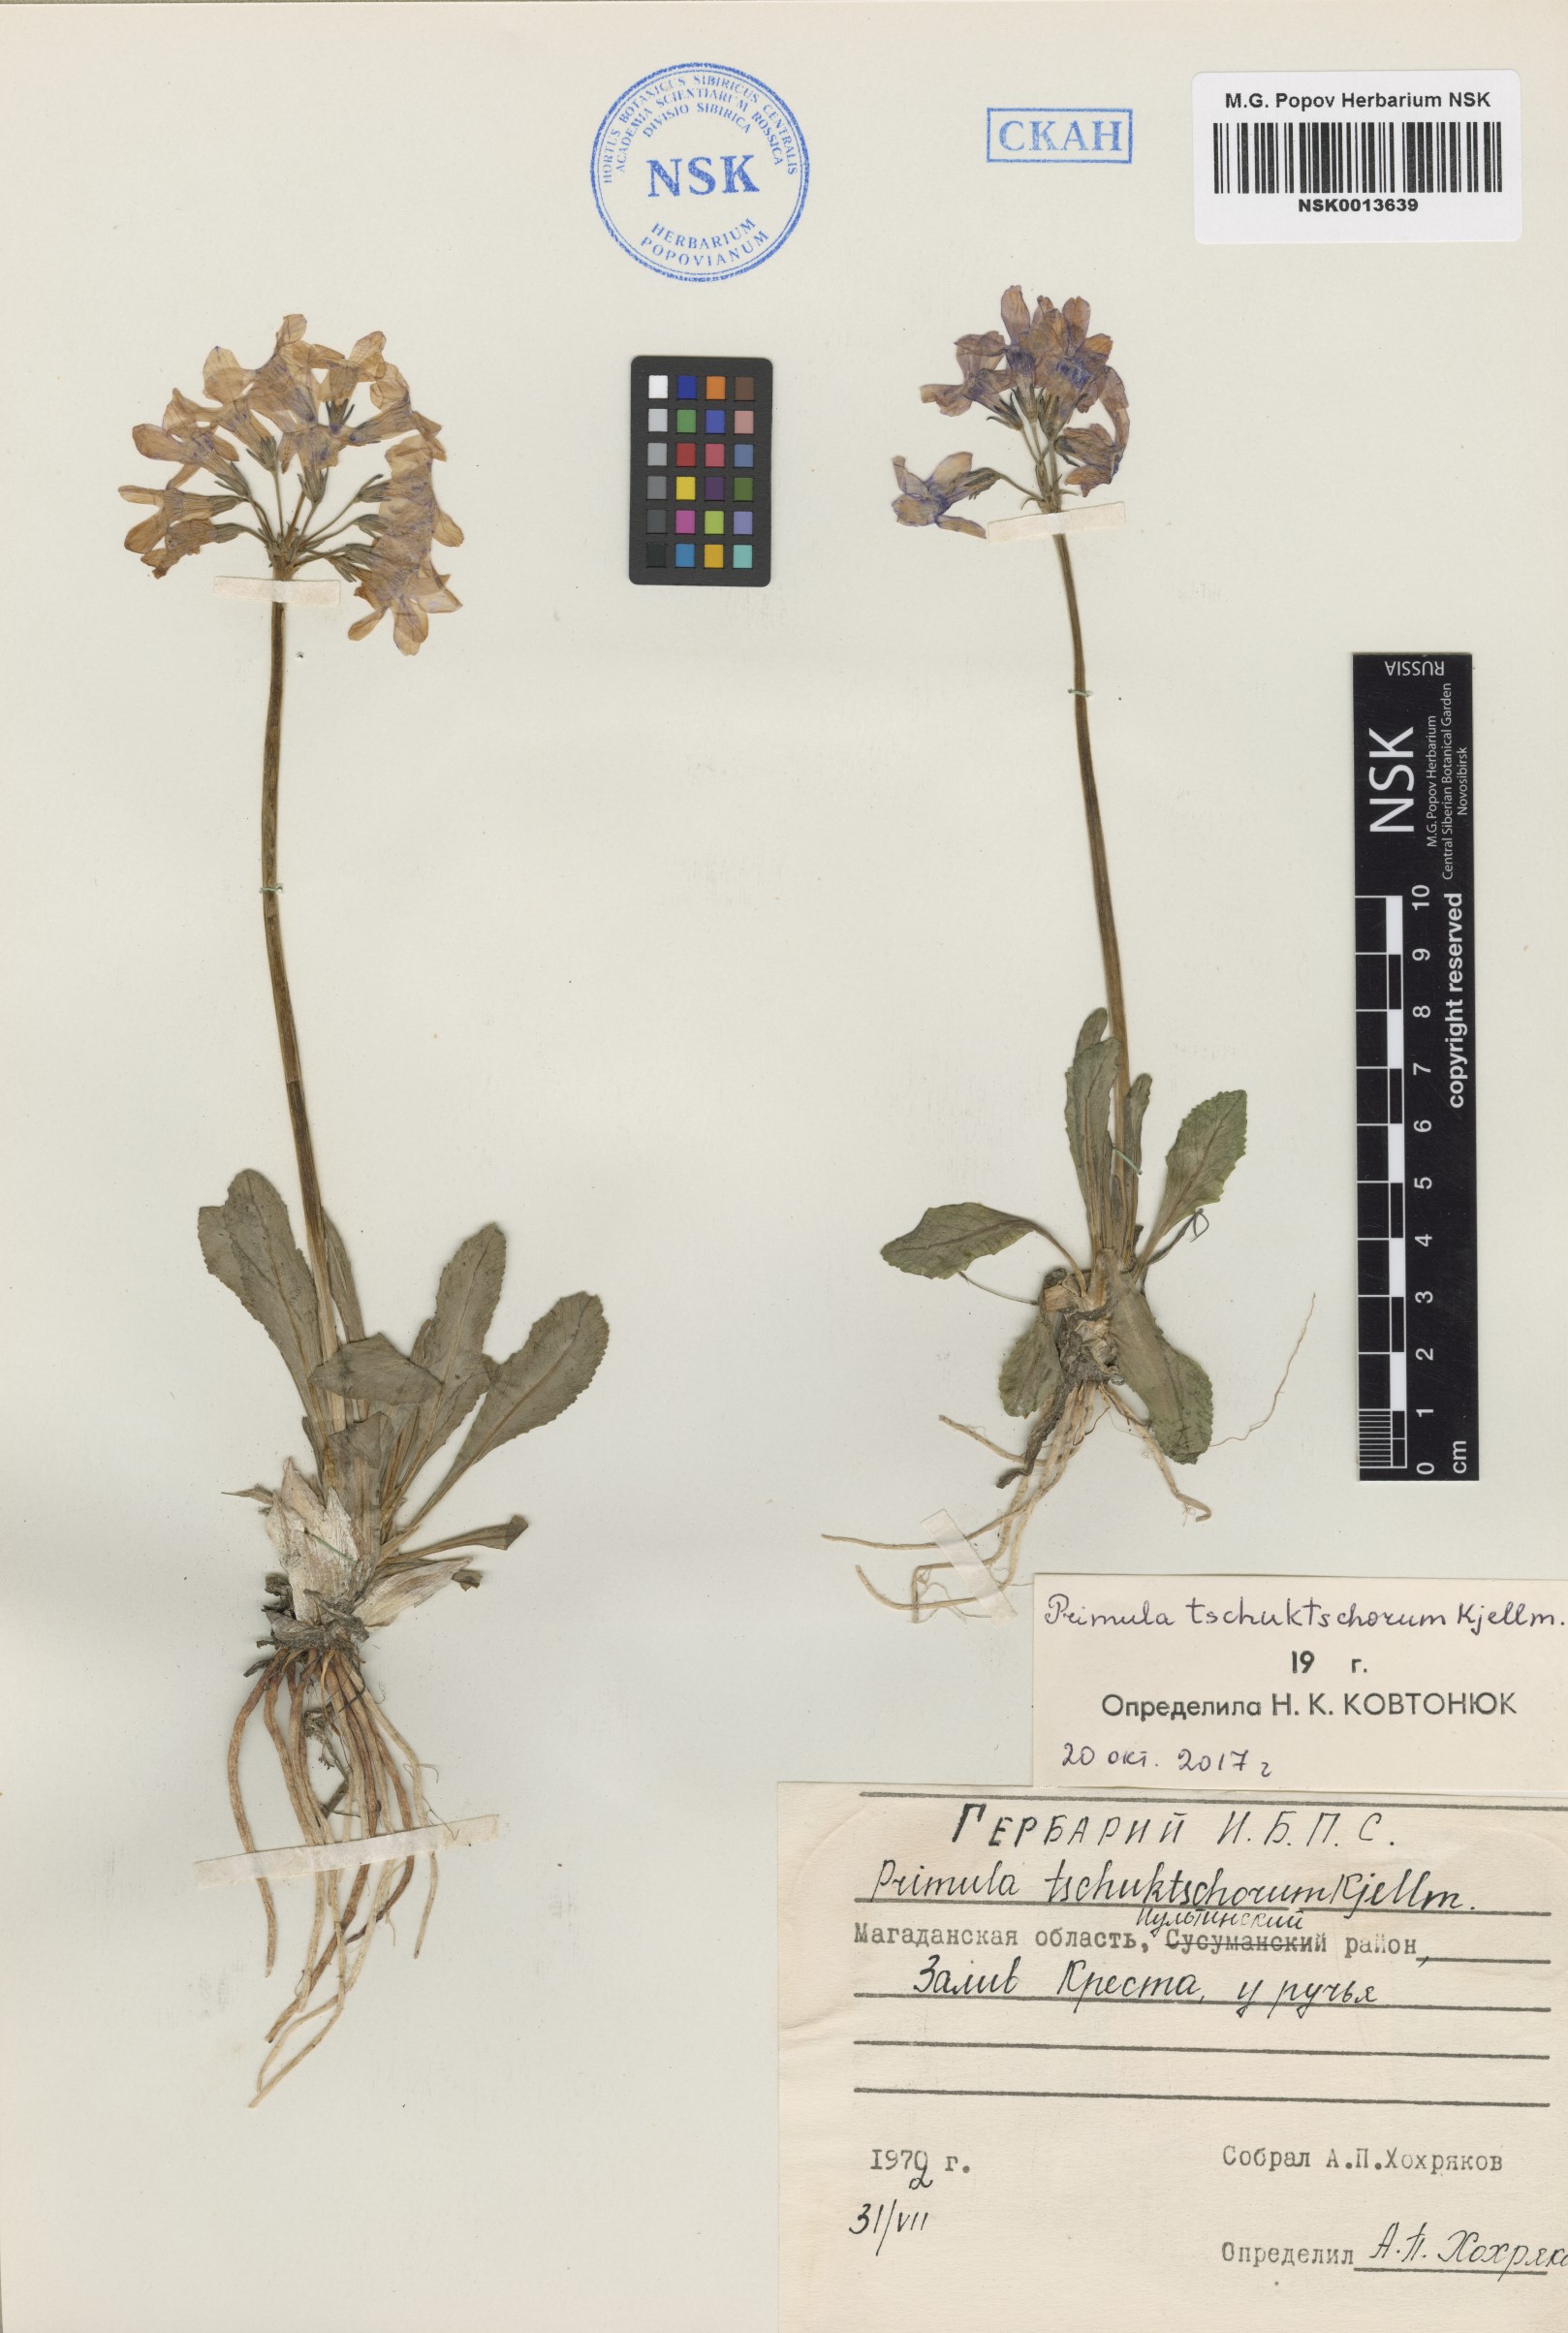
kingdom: Plantae
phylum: Tracheophyta
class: Magnoliopsida
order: Ericales
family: Primulaceae
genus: Primula
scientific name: Primula tschuktschorum
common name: Chukchi primrose
